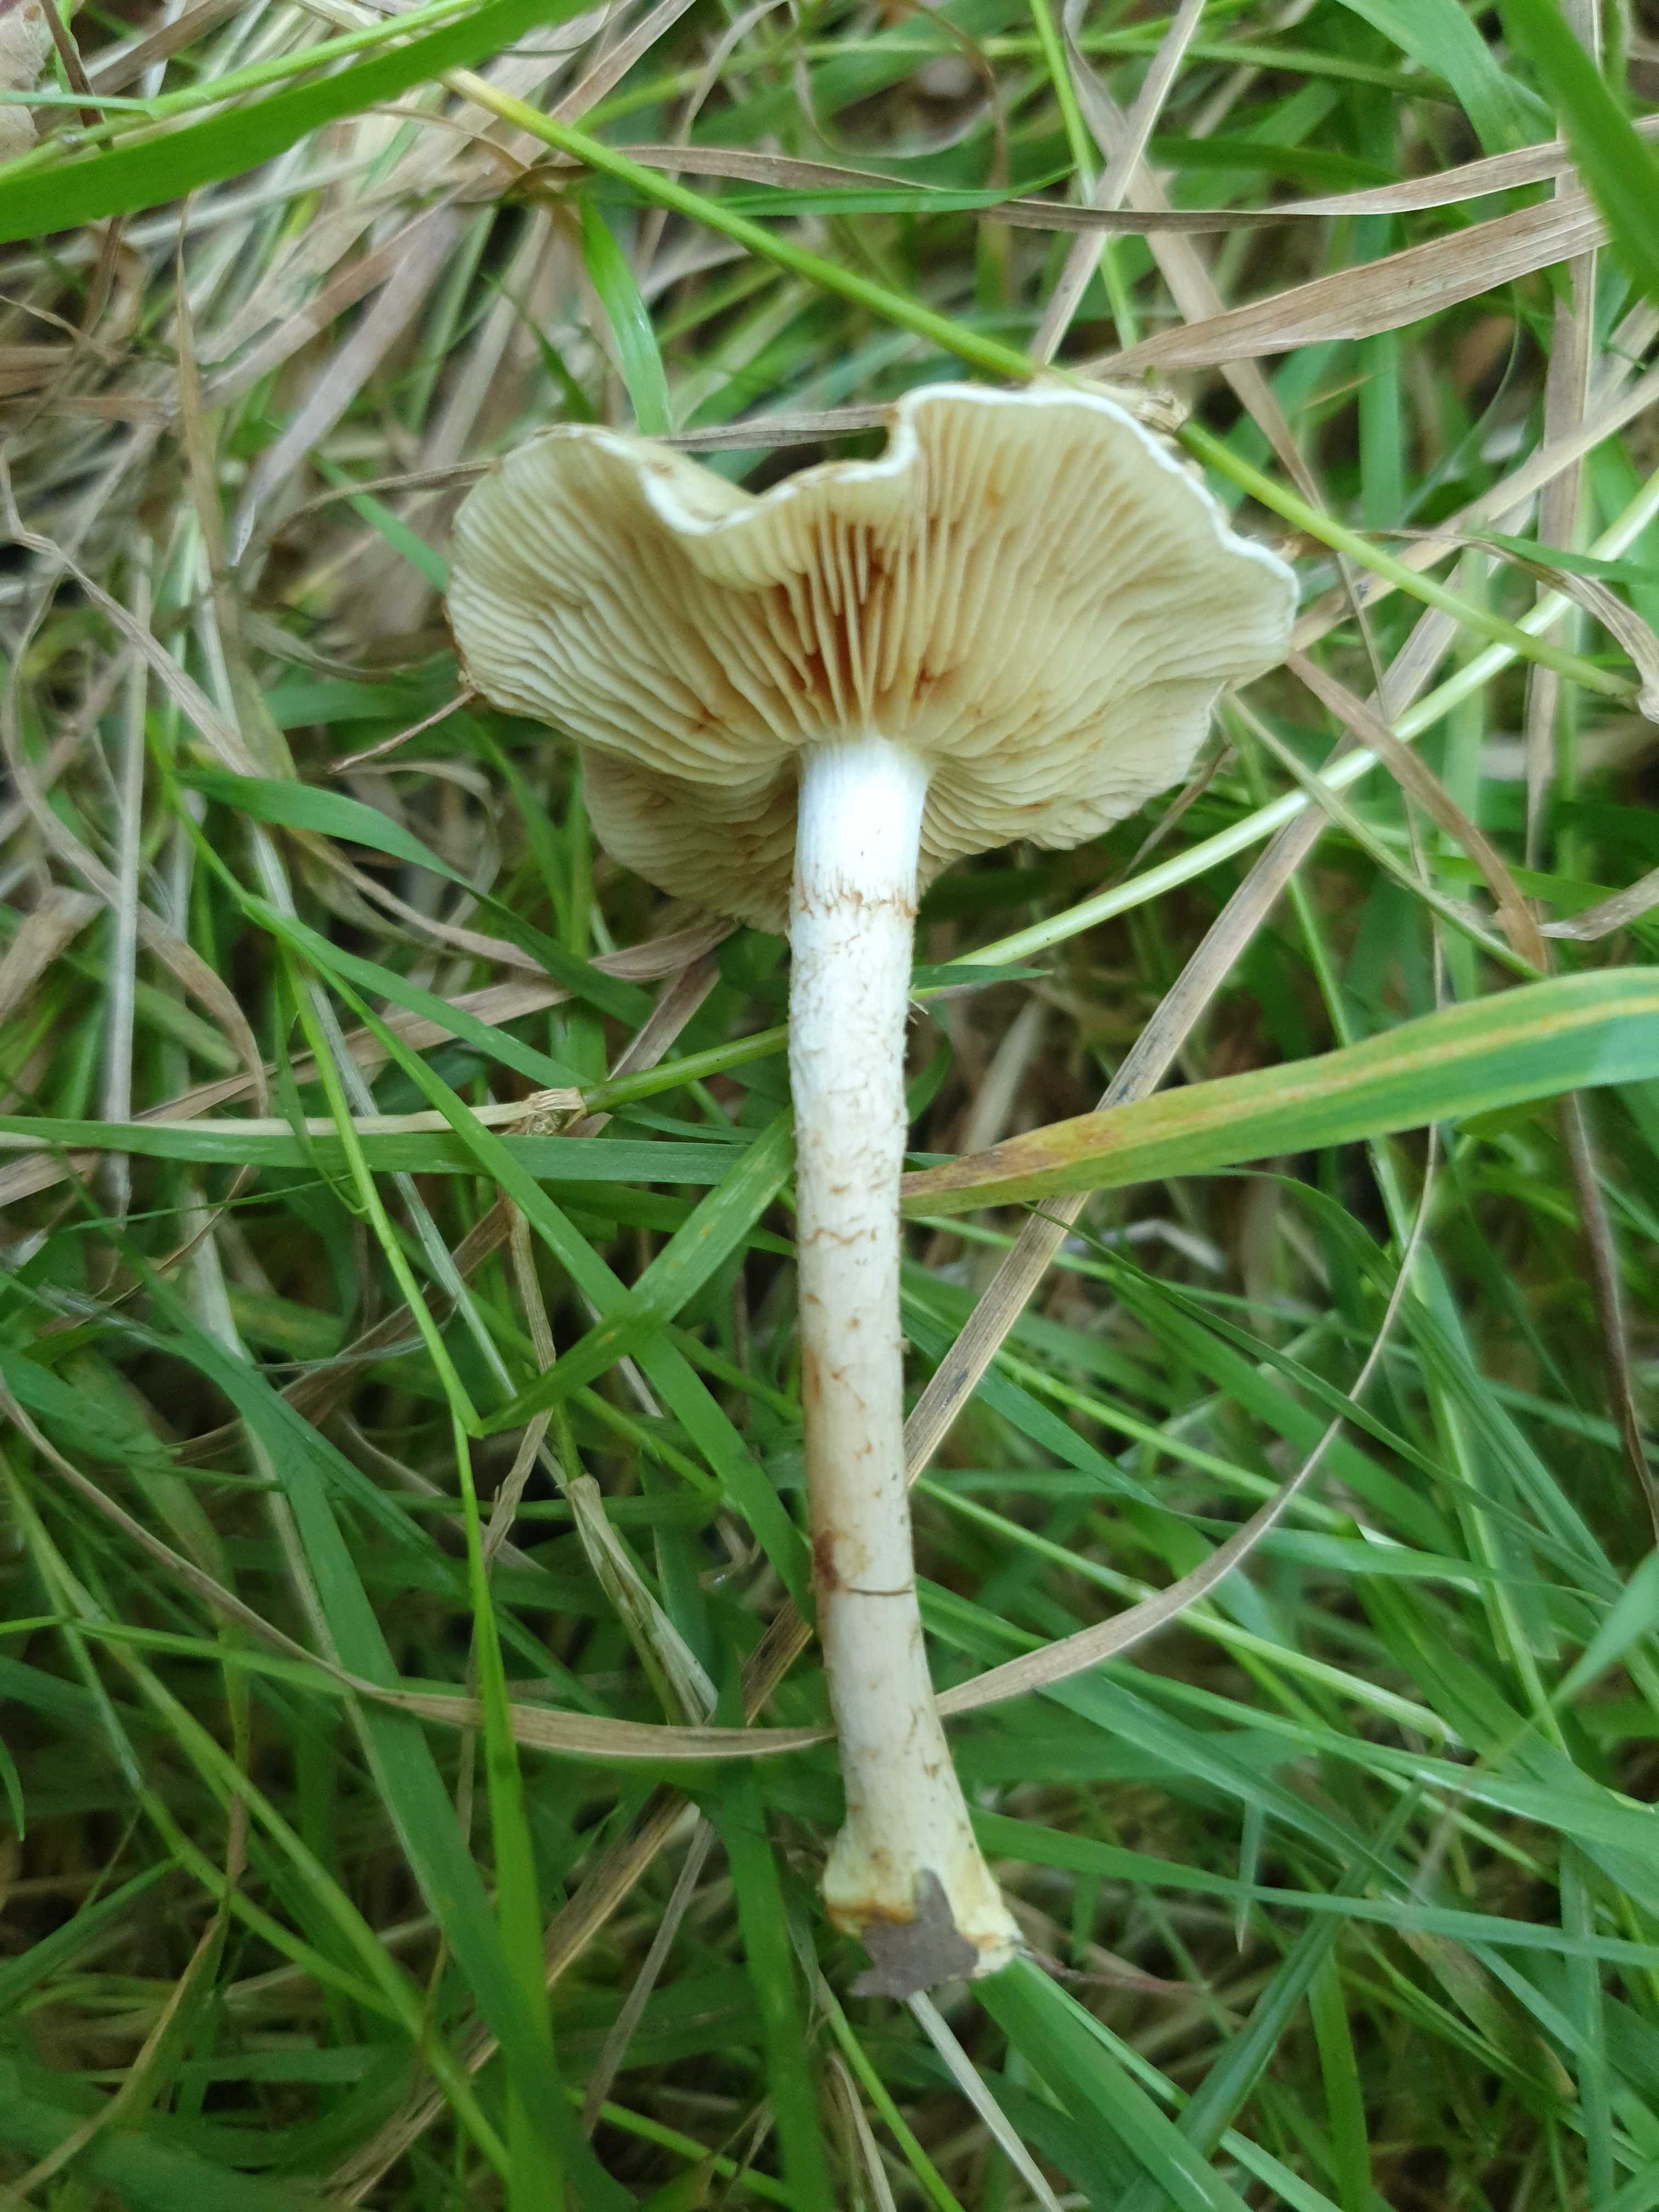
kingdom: Fungi
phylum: Basidiomycota
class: Agaricomycetes
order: Agaricales
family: Strophariaceae
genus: Pholiota
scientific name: Pholiota gummosa
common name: grøngul skælhat
